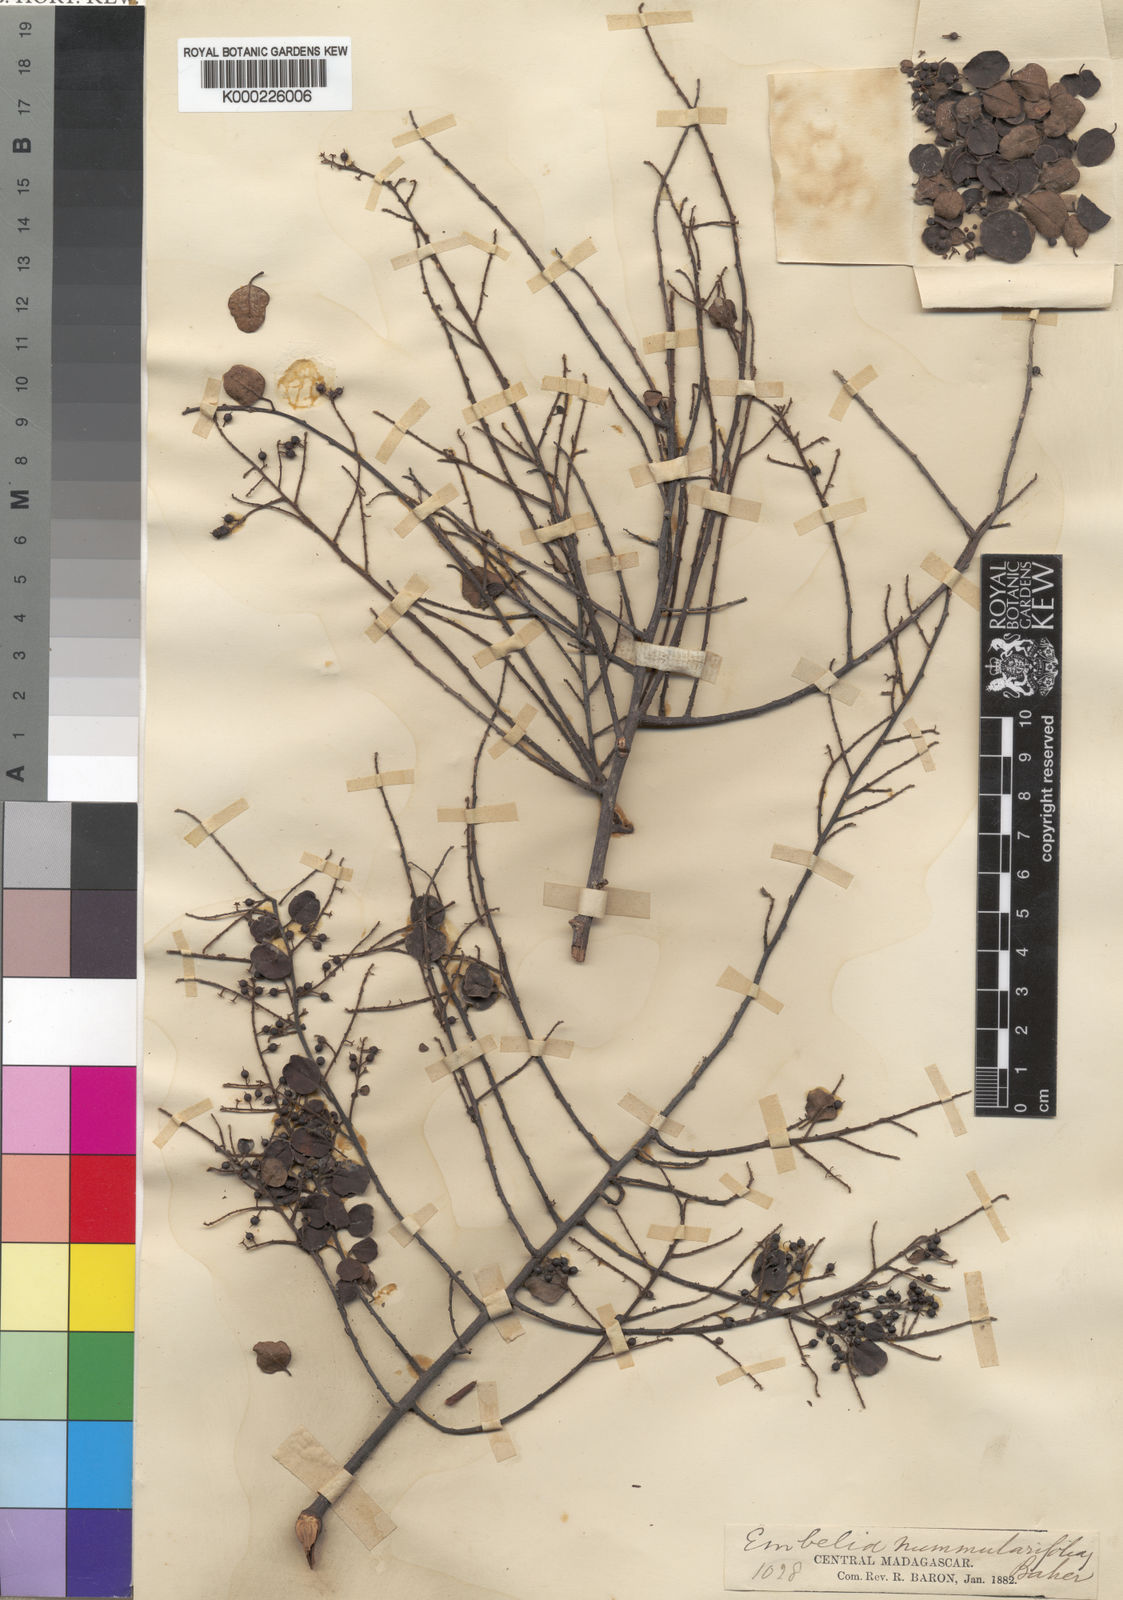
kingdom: Plantae
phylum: Tracheophyta
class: Magnoliopsida
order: Ericales
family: Primulaceae
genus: Embelia
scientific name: Embelia nummulariifolia
